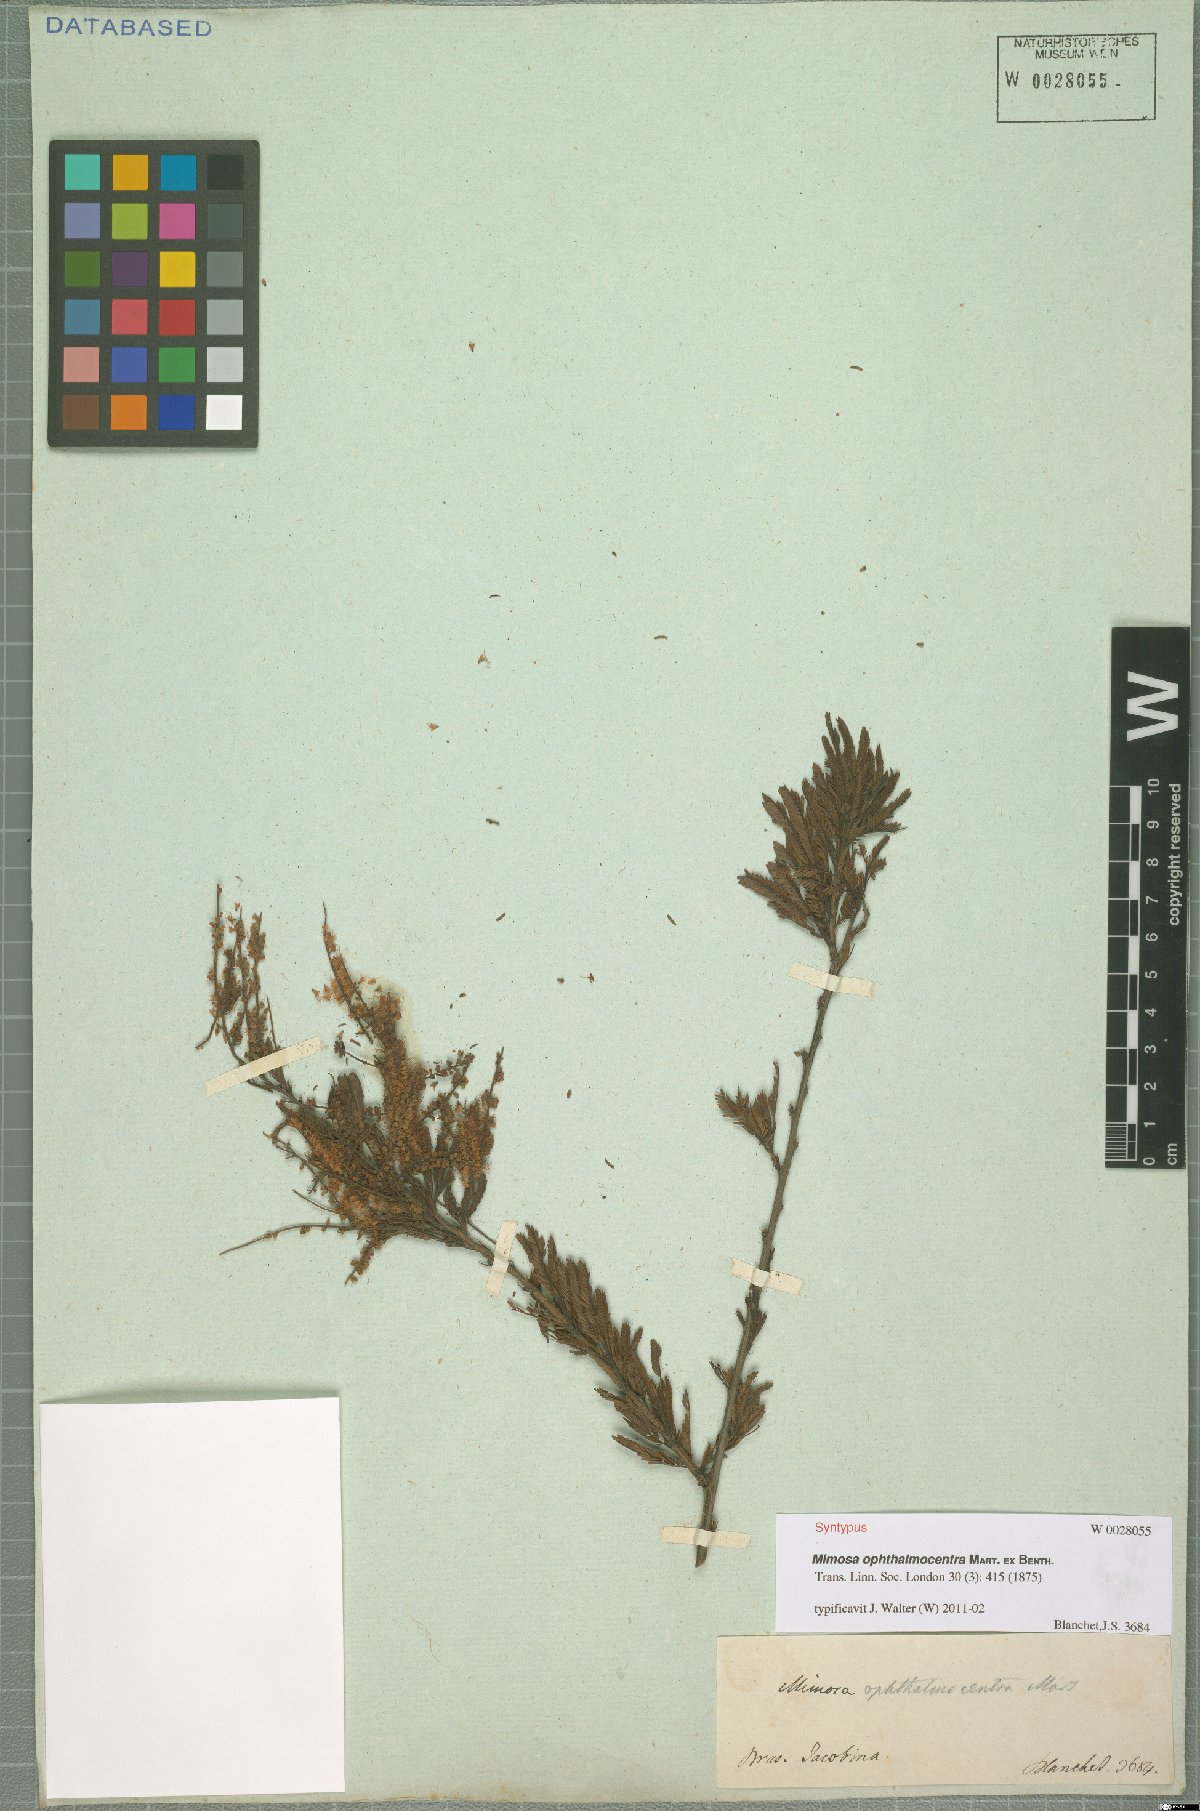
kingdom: Plantae
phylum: Tracheophyta
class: Magnoliopsida
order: Fabales
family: Fabaceae
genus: Mimosa
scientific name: Mimosa ophthalmocentra
